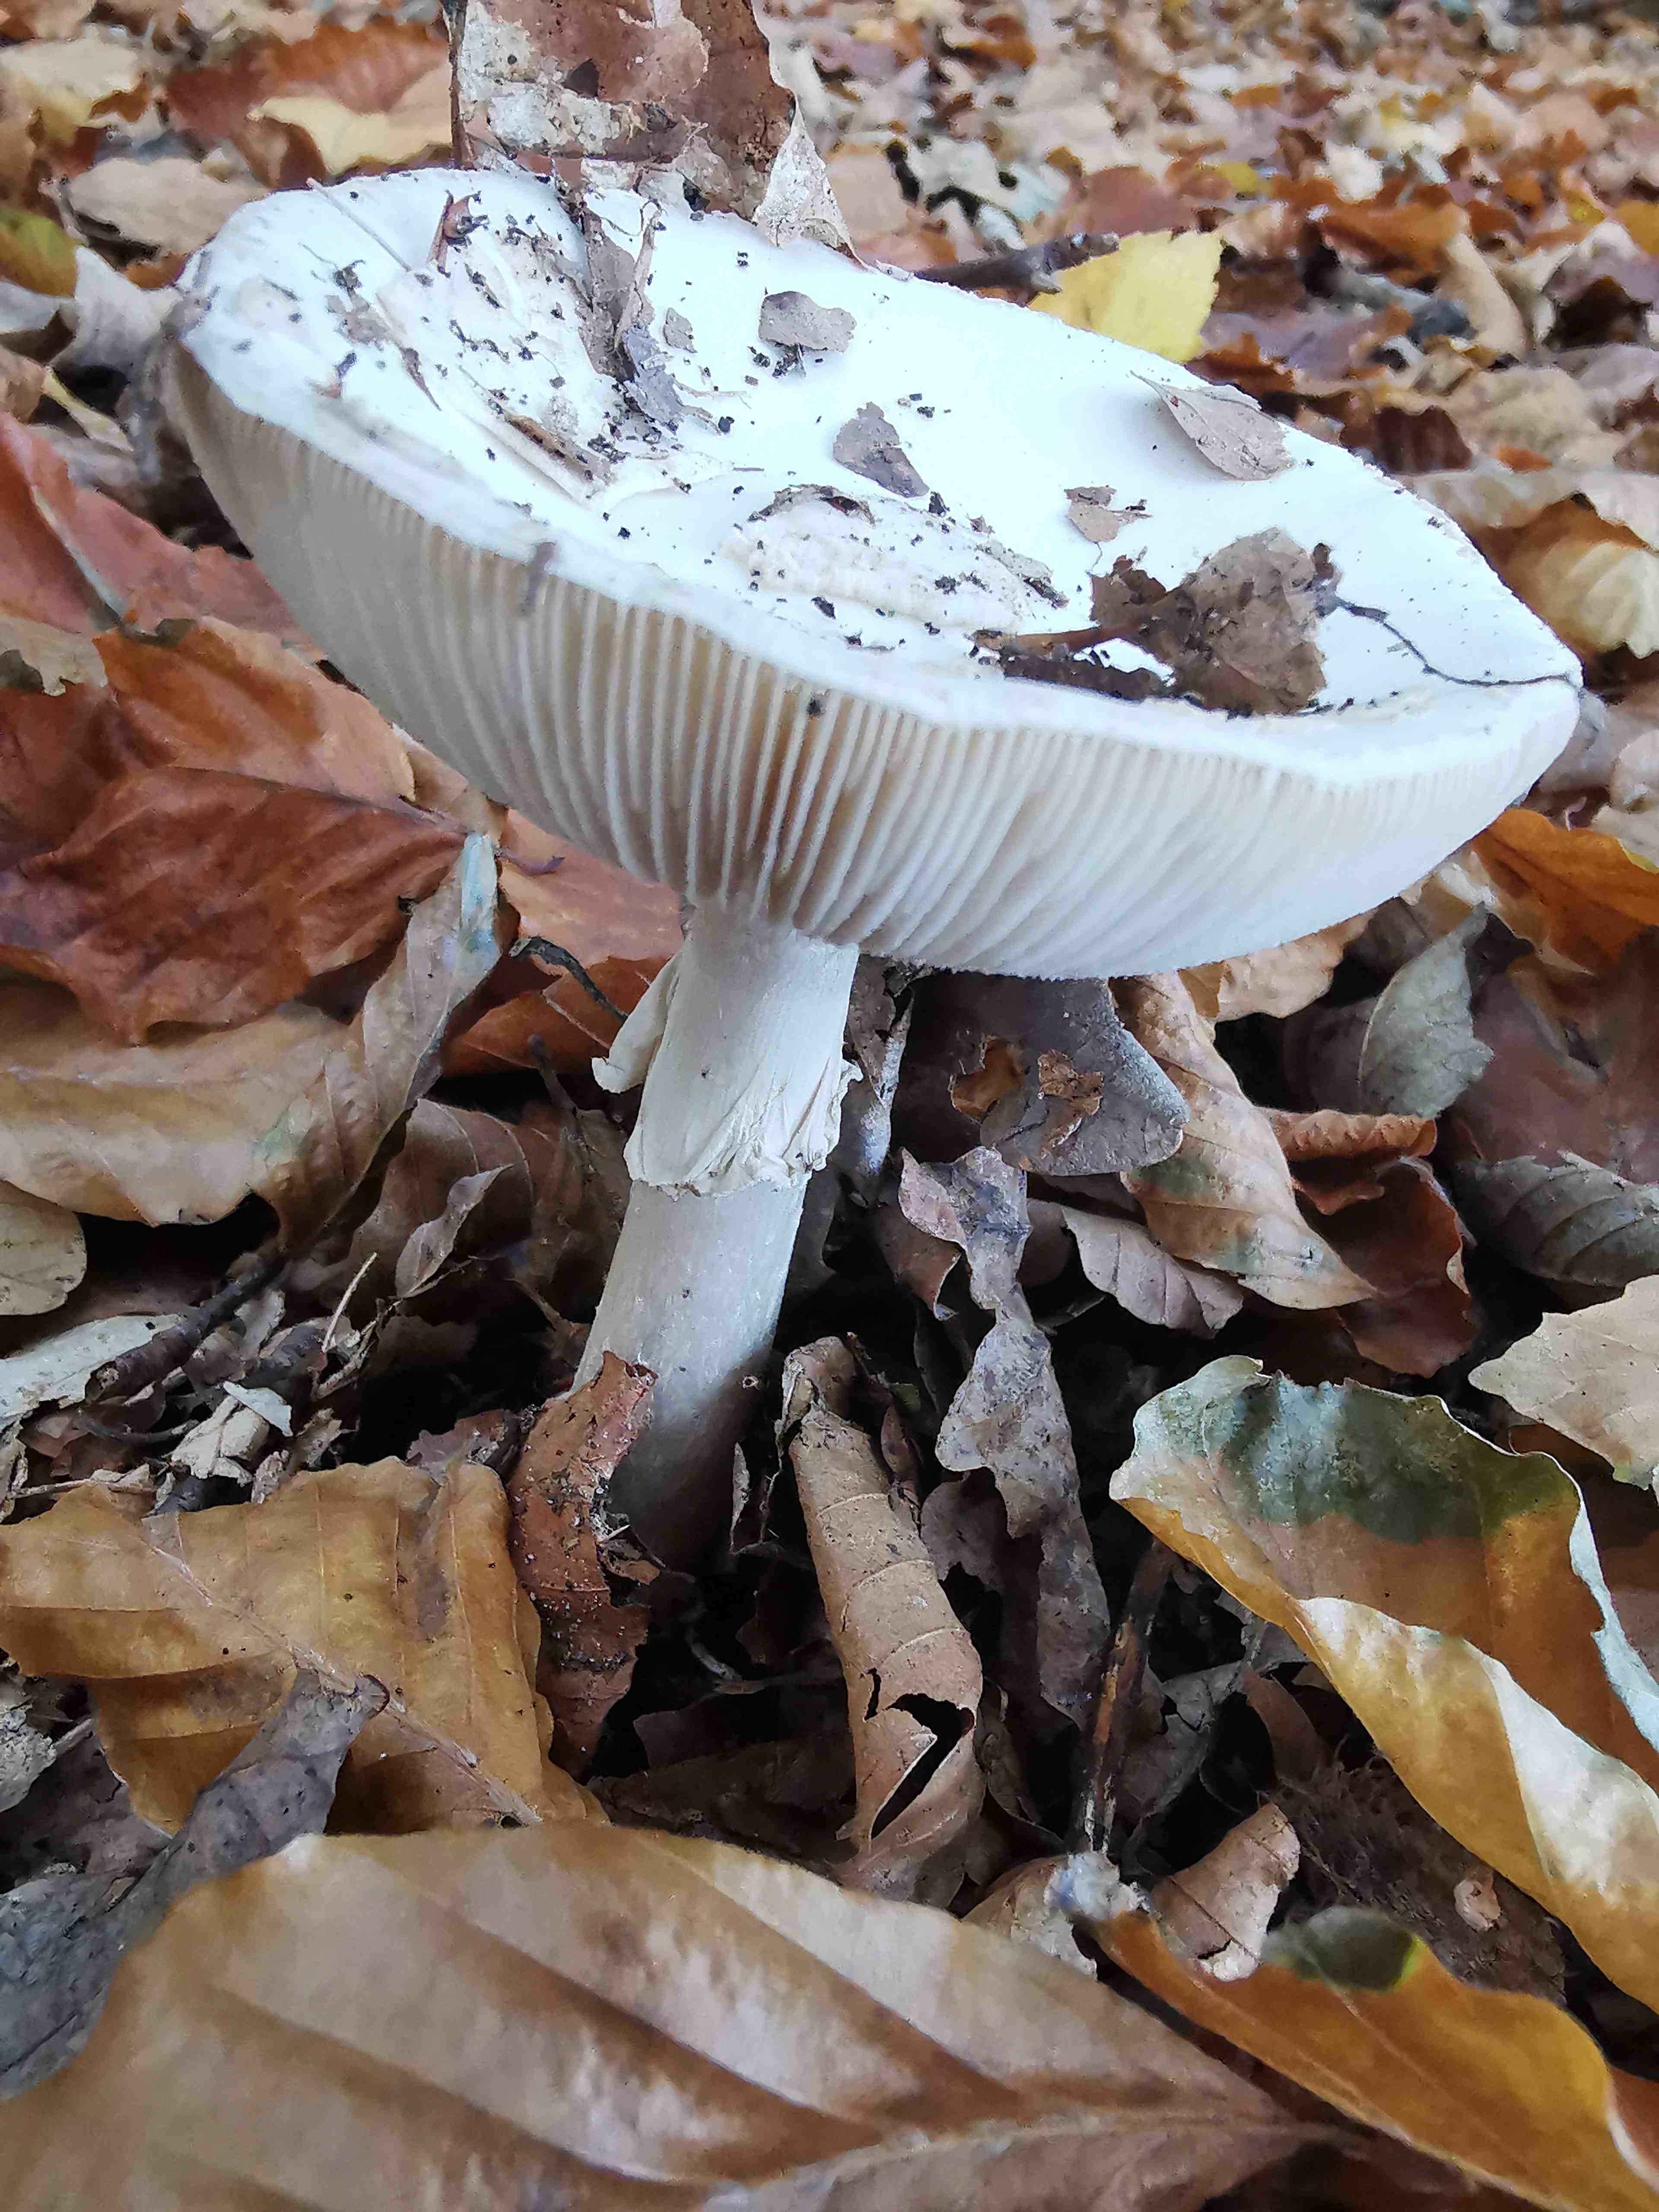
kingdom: Fungi
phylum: Basidiomycota
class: Agaricomycetes
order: Agaricales
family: Amanitaceae
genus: Amanita
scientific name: Amanita citrina
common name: kugleknoldet fluesvamp
